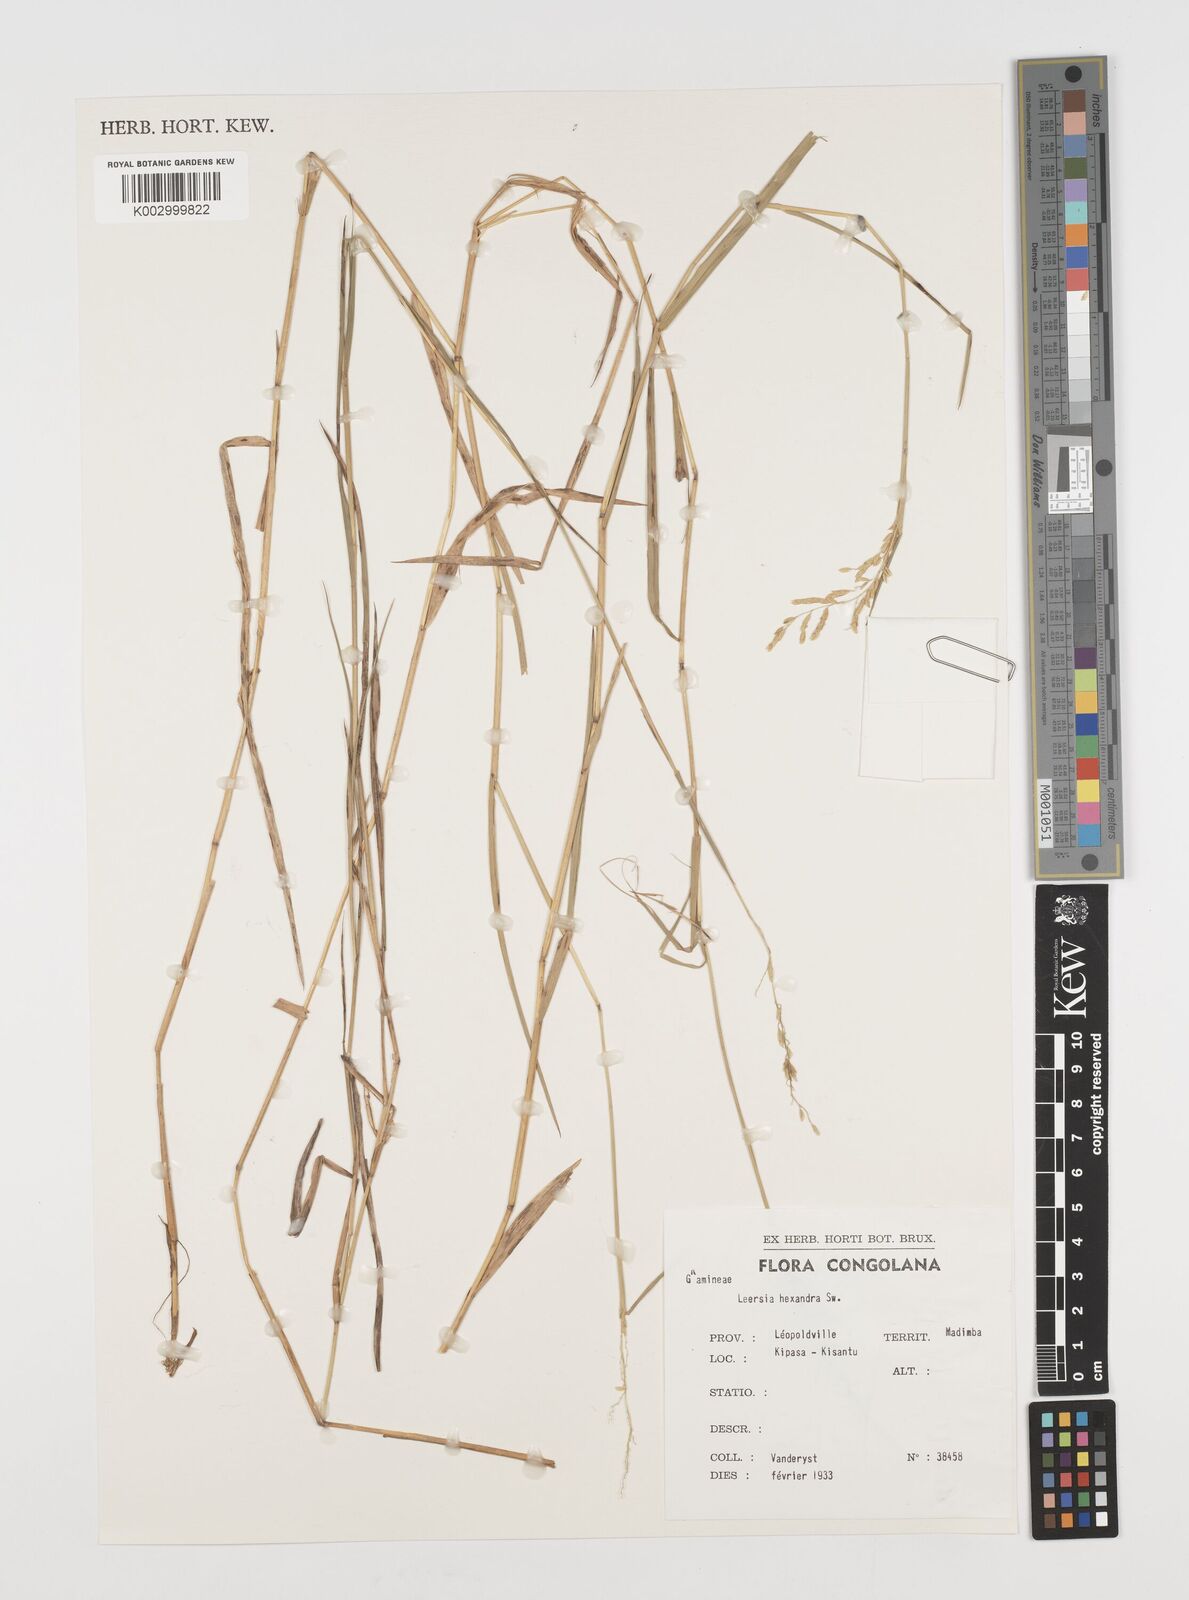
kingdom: Plantae
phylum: Tracheophyta
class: Liliopsida
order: Poales
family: Poaceae
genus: Leersia
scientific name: Leersia hexandra
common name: Southern cut grass
